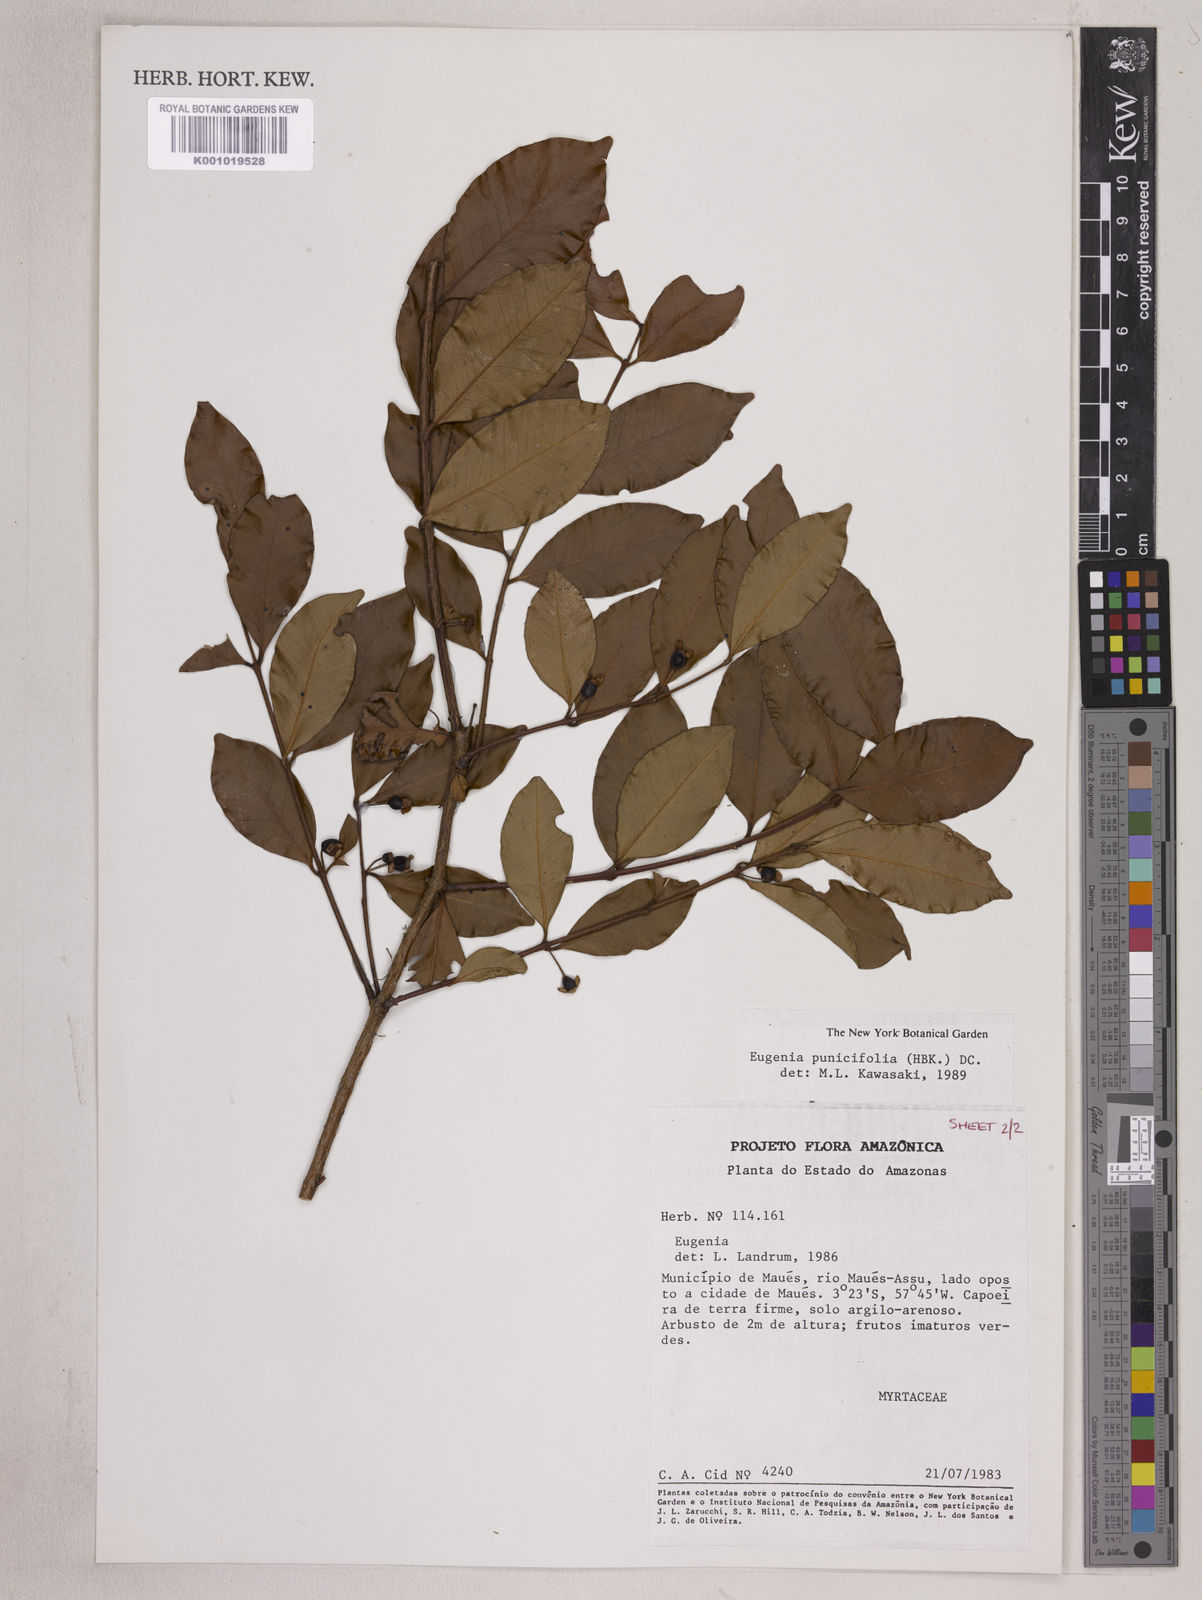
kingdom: Plantae
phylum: Tracheophyta
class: Magnoliopsida
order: Myrtales
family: Myrtaceae
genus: Eugenia
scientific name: Eugenia punicifolia
